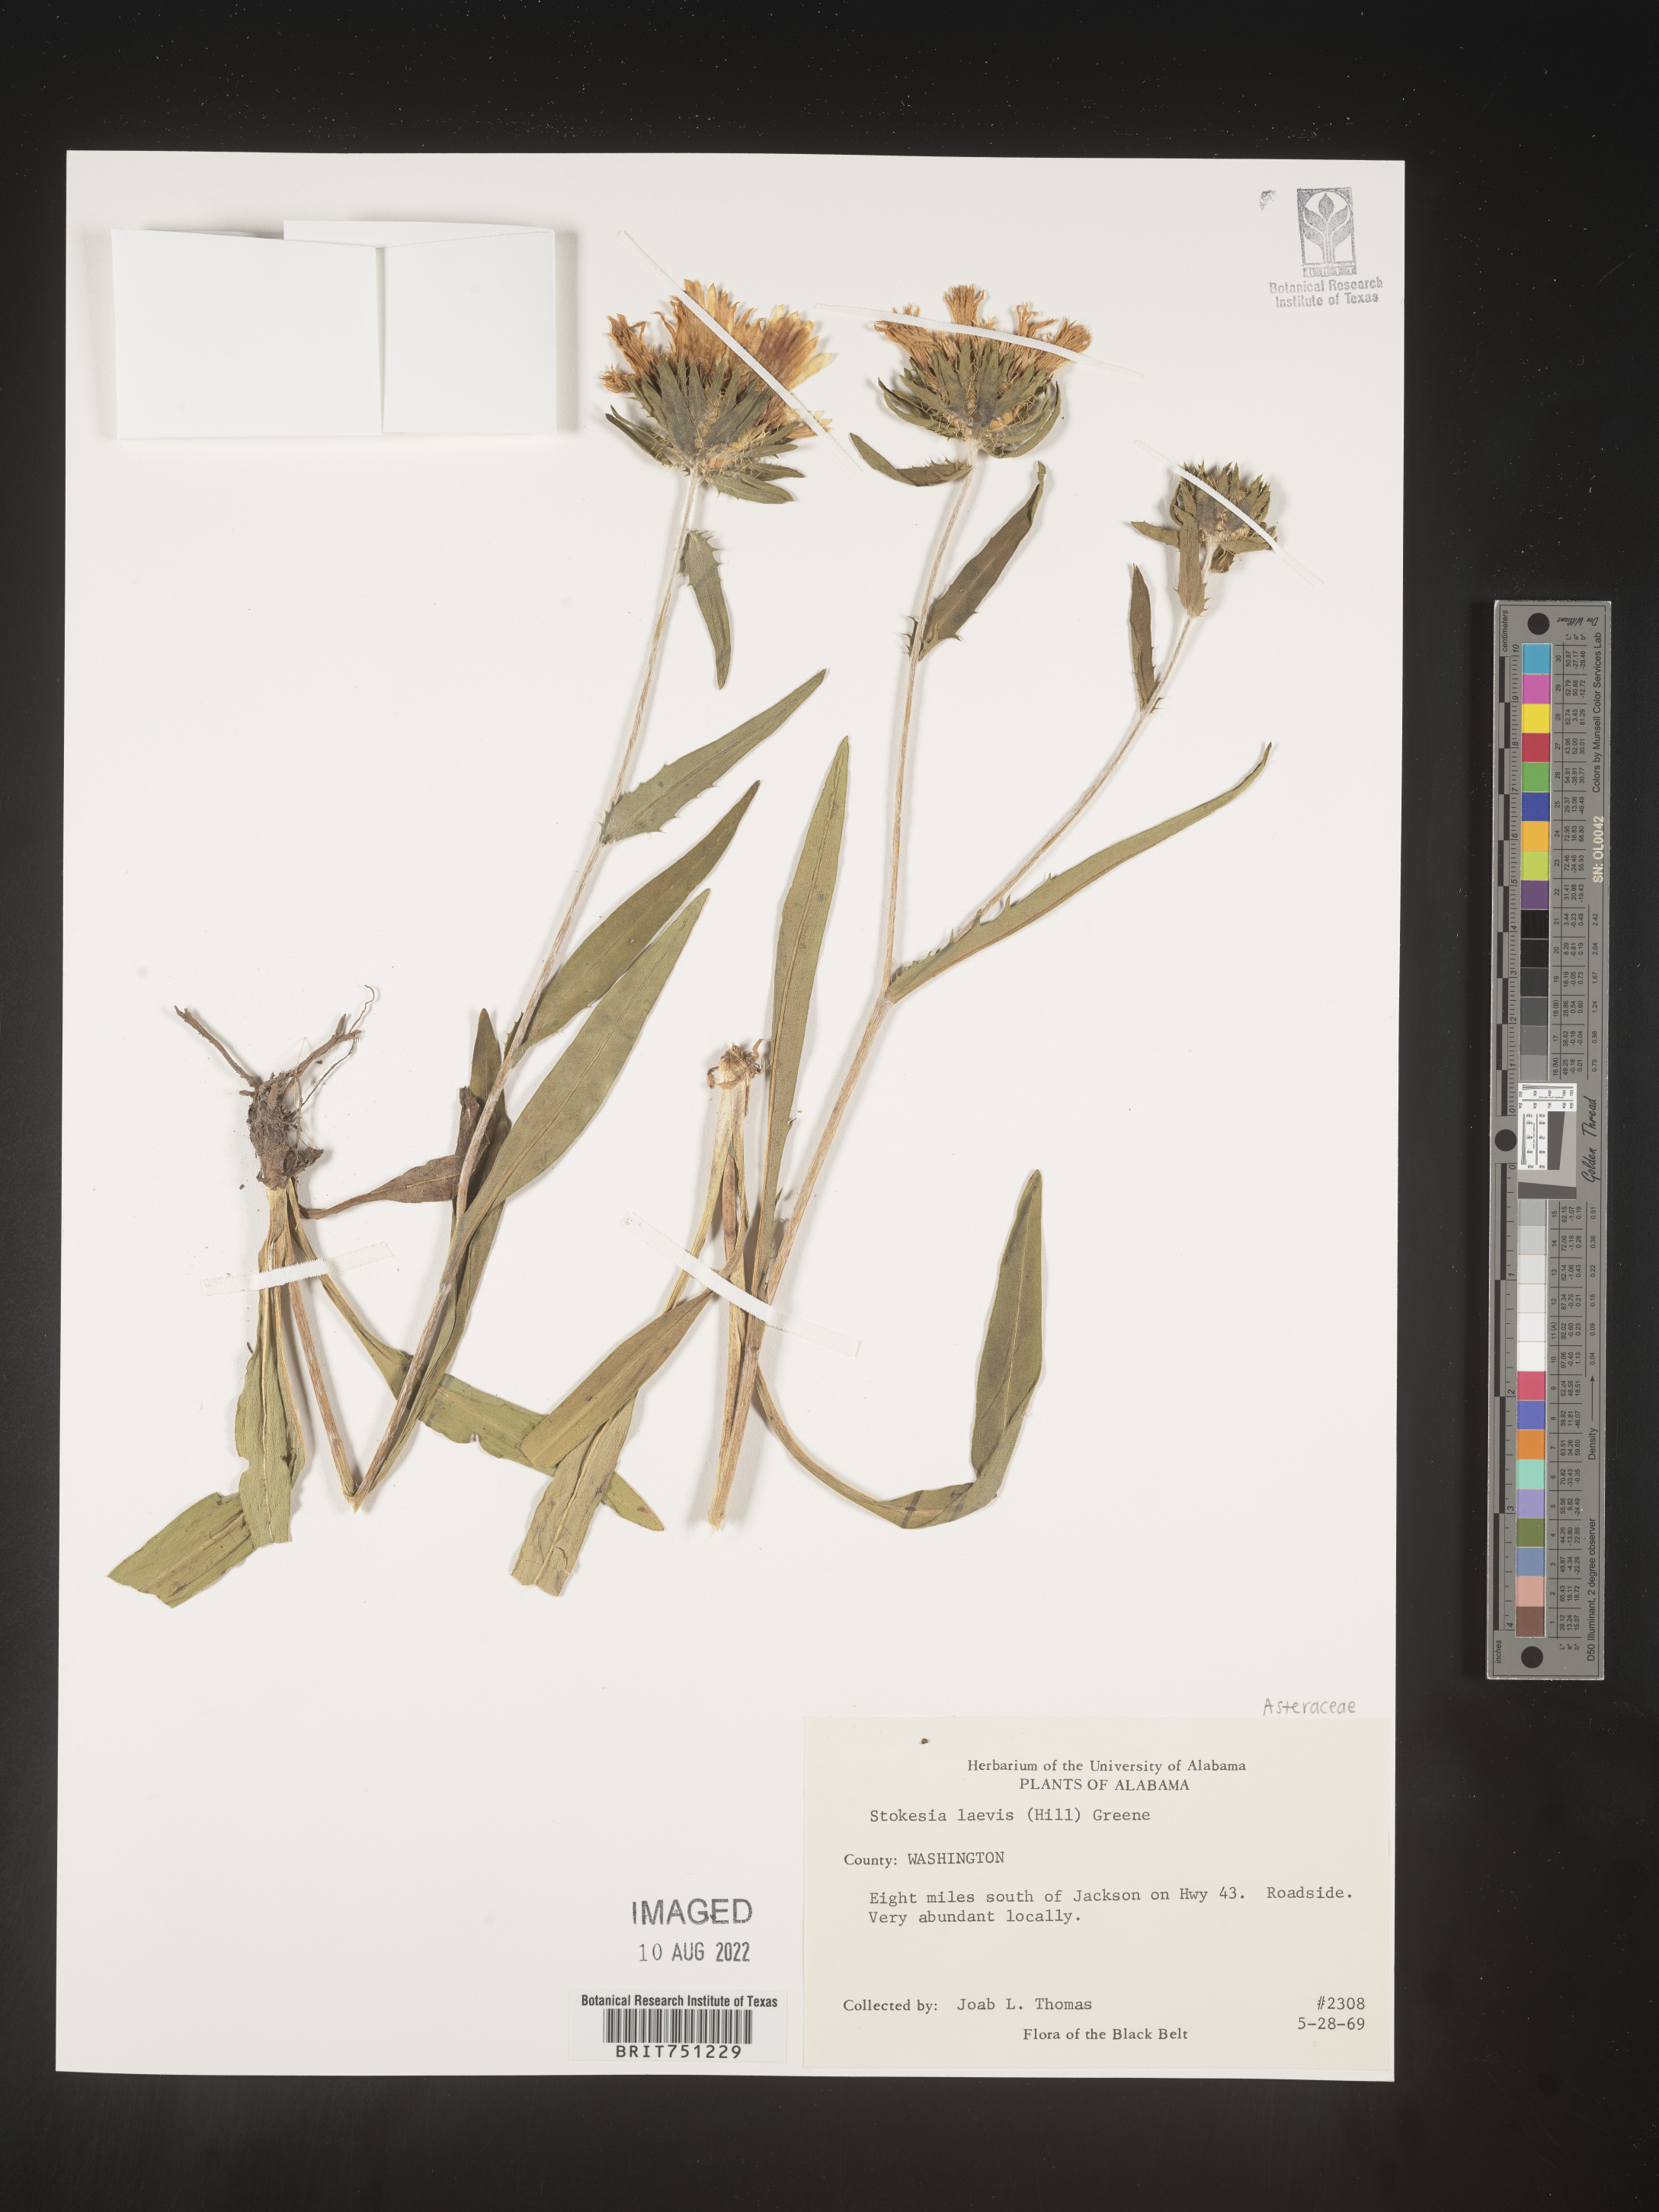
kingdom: Plantae
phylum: Tracheophyta
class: Magnoliopsida
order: Asterales
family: Asteraceae
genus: Stokesia
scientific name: Stokesia
